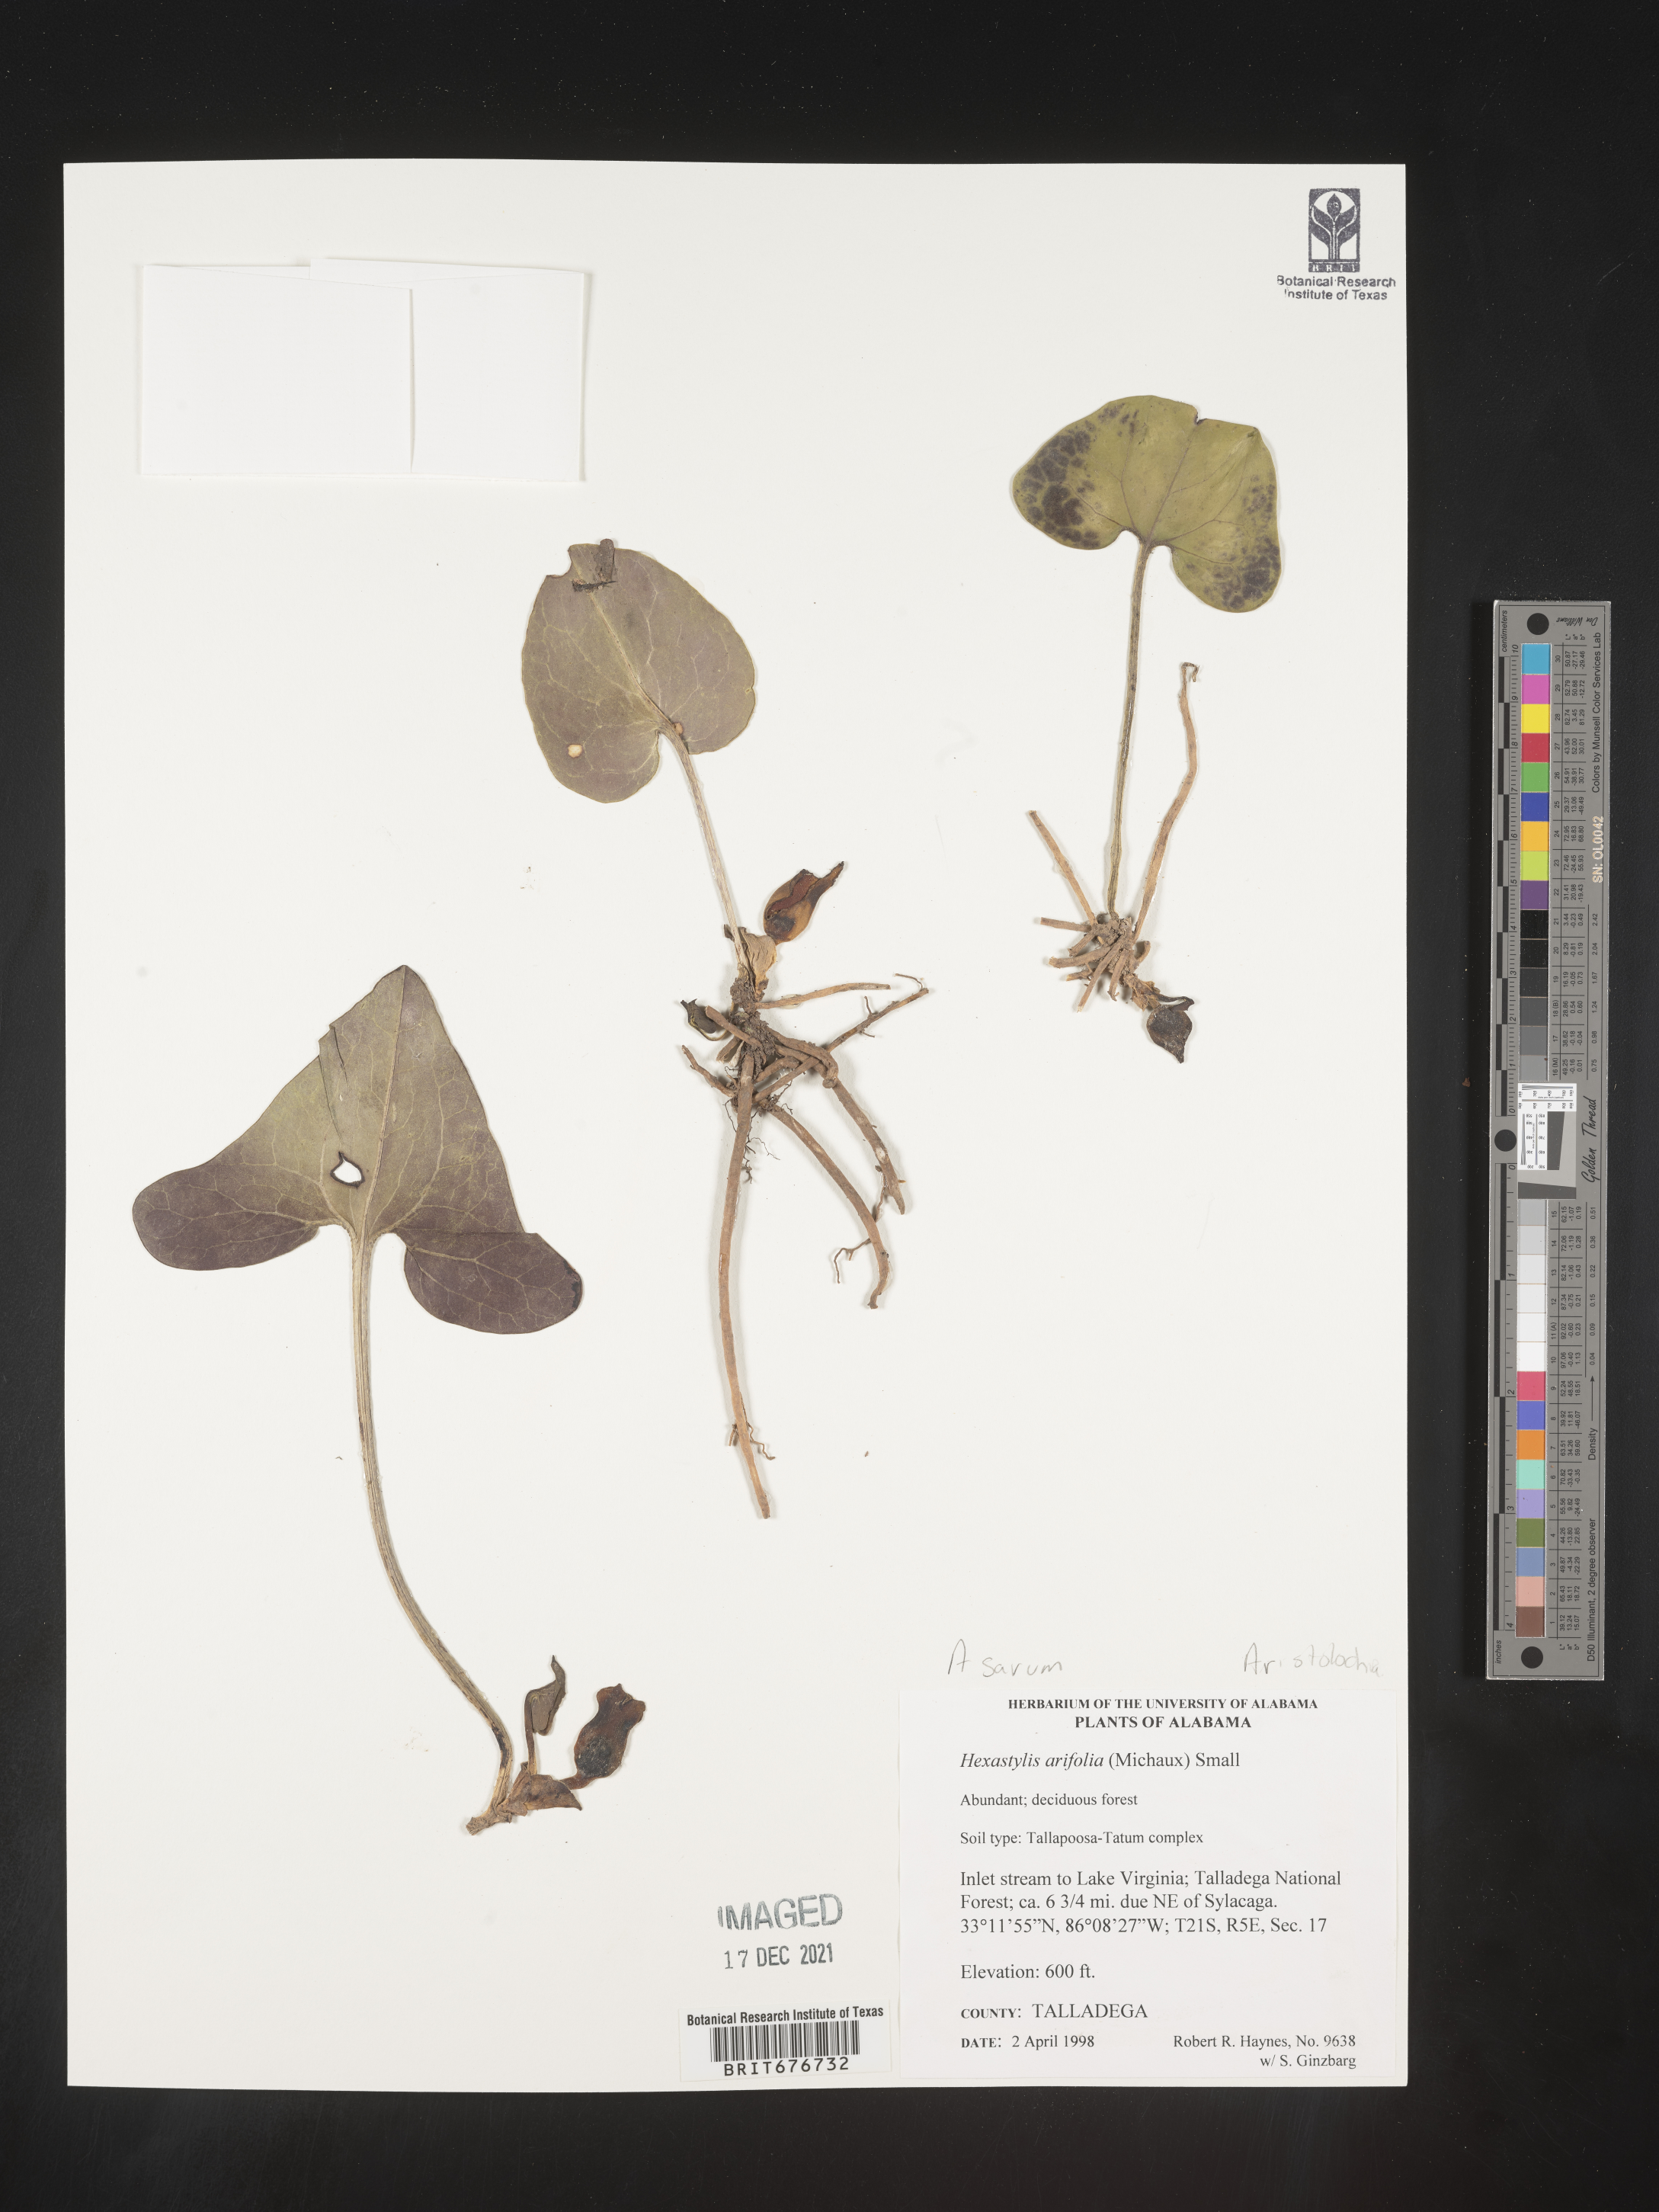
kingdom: Plantae
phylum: Tracheophyta
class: Magnoliopsida
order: Piperales
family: Aristolochiaceae
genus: Hexastylis
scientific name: Hexastylis arifolia
